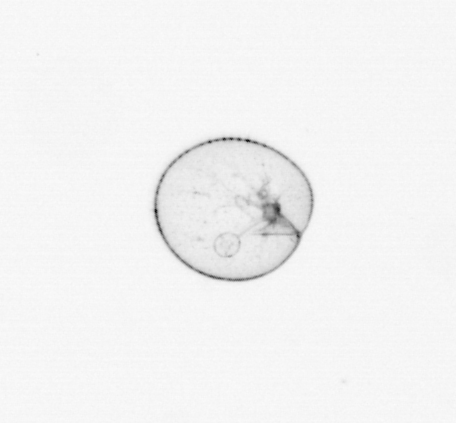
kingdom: Chromista
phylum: Myzozoa
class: Dinophyceae
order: Noctilucales
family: Noctilucaceae
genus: Noctiluca
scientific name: Noctiluca scintillans
